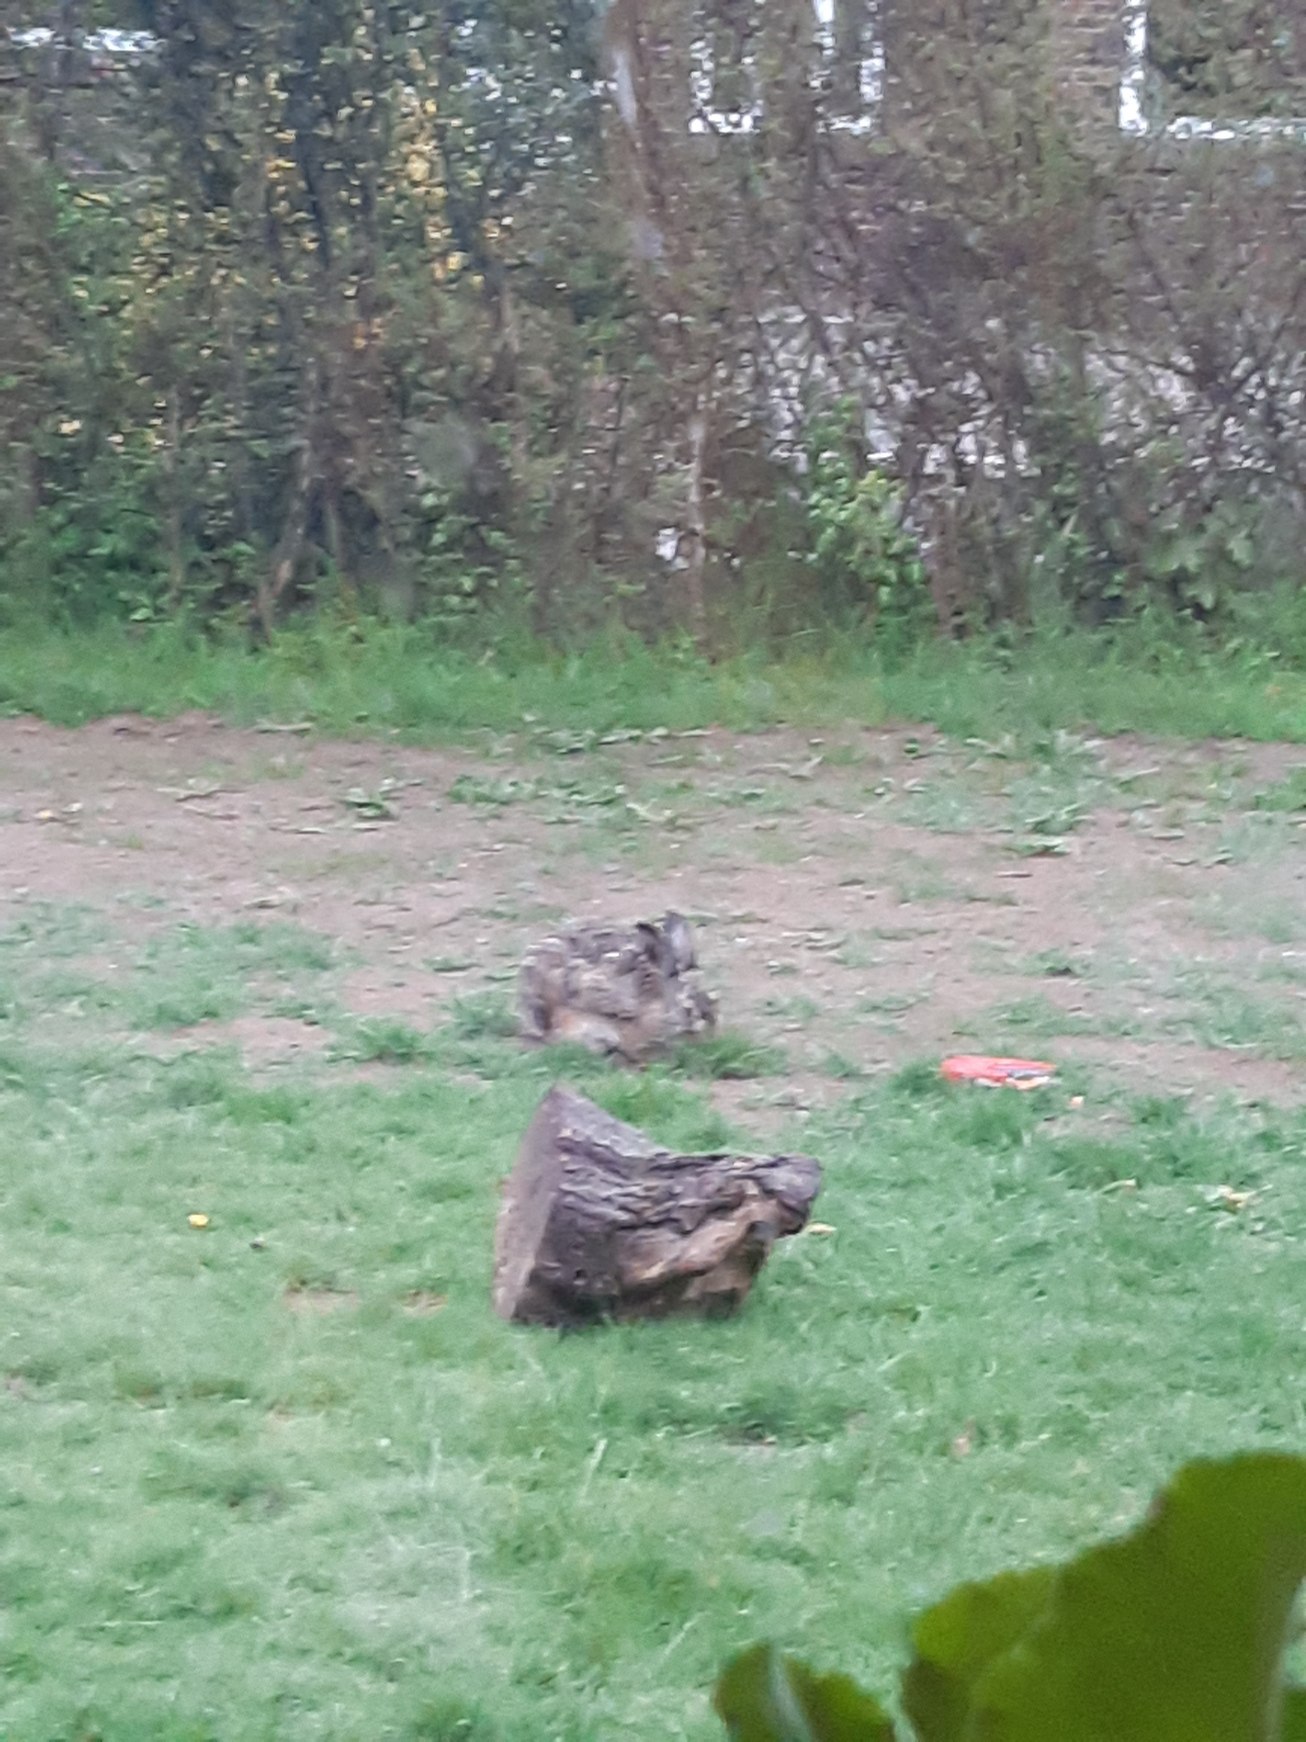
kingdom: Animalia
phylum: Chordata
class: Mammalia
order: Lagomorpha
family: Leporidae
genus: Lepus
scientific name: Lepus europaeus
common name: Hare
